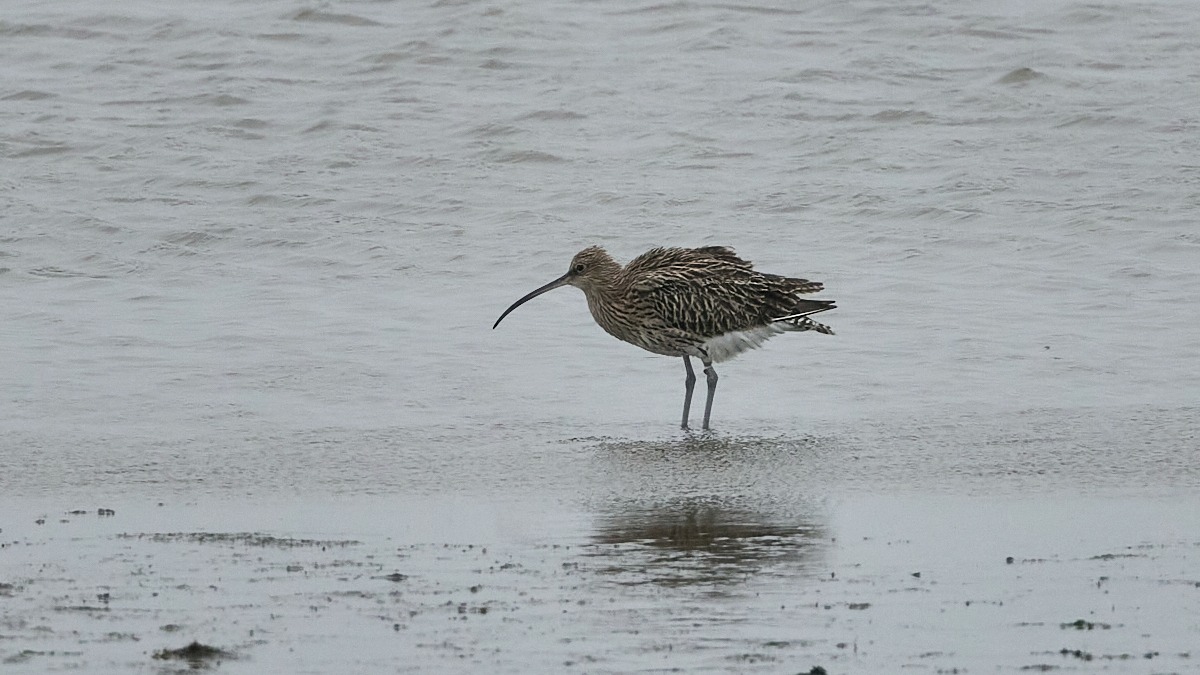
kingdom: Animalia
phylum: Chordata
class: Aves
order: Charadriiformes
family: Scolopacidae
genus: Numenius
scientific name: Numenius arquata
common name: Storspove
